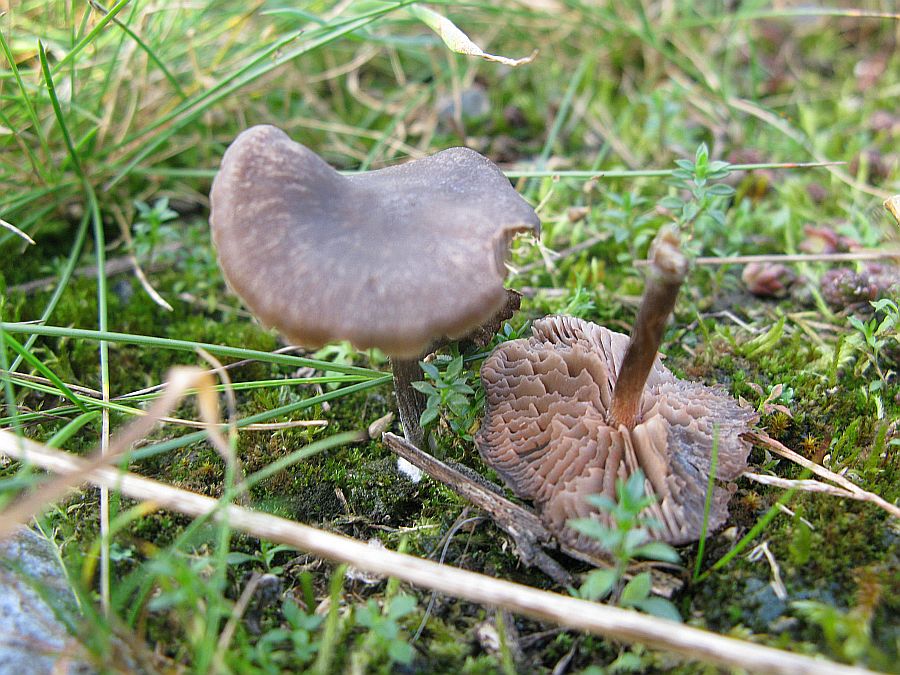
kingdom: Fungi
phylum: Basidiomycota
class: Agaricomycetes
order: Agaricales
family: Entolomataceae
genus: Entoloma
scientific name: Entoloma vindobonense
